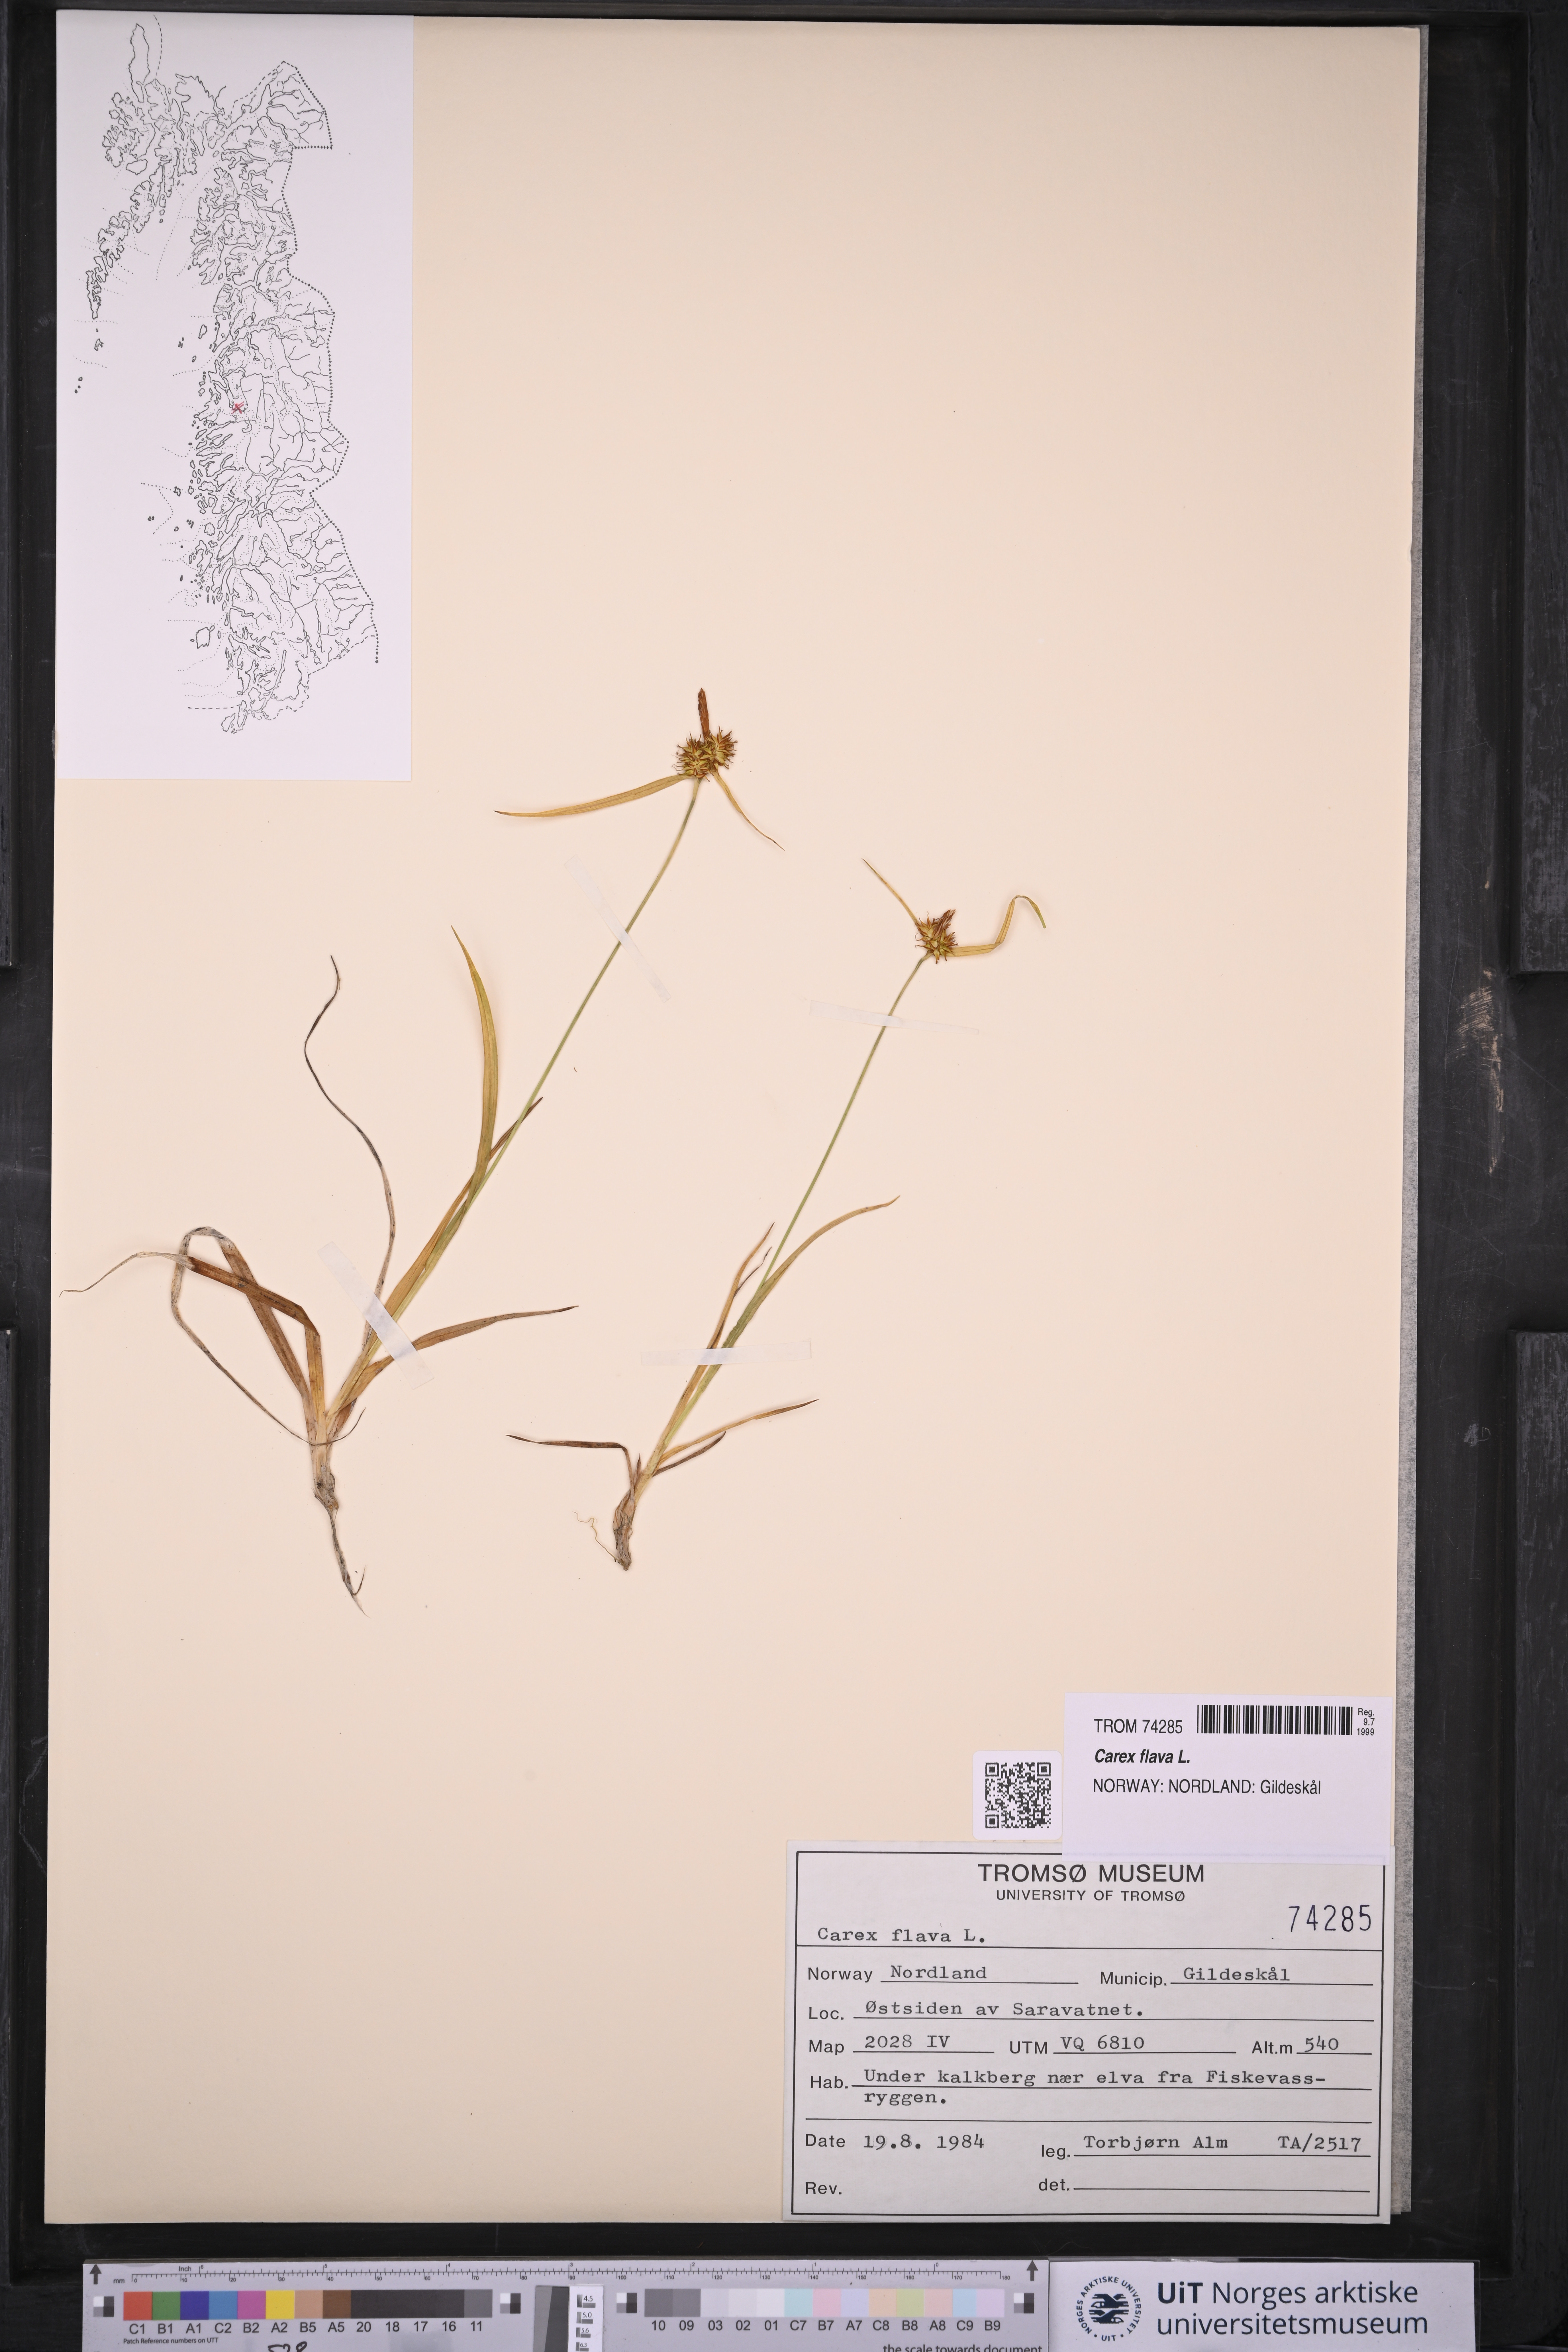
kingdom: Plantae
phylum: Tracheophyta
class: Liliopsida
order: Poales
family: Cyperaceae
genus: Carex
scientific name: Carex flava
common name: Large yellow-sedge
